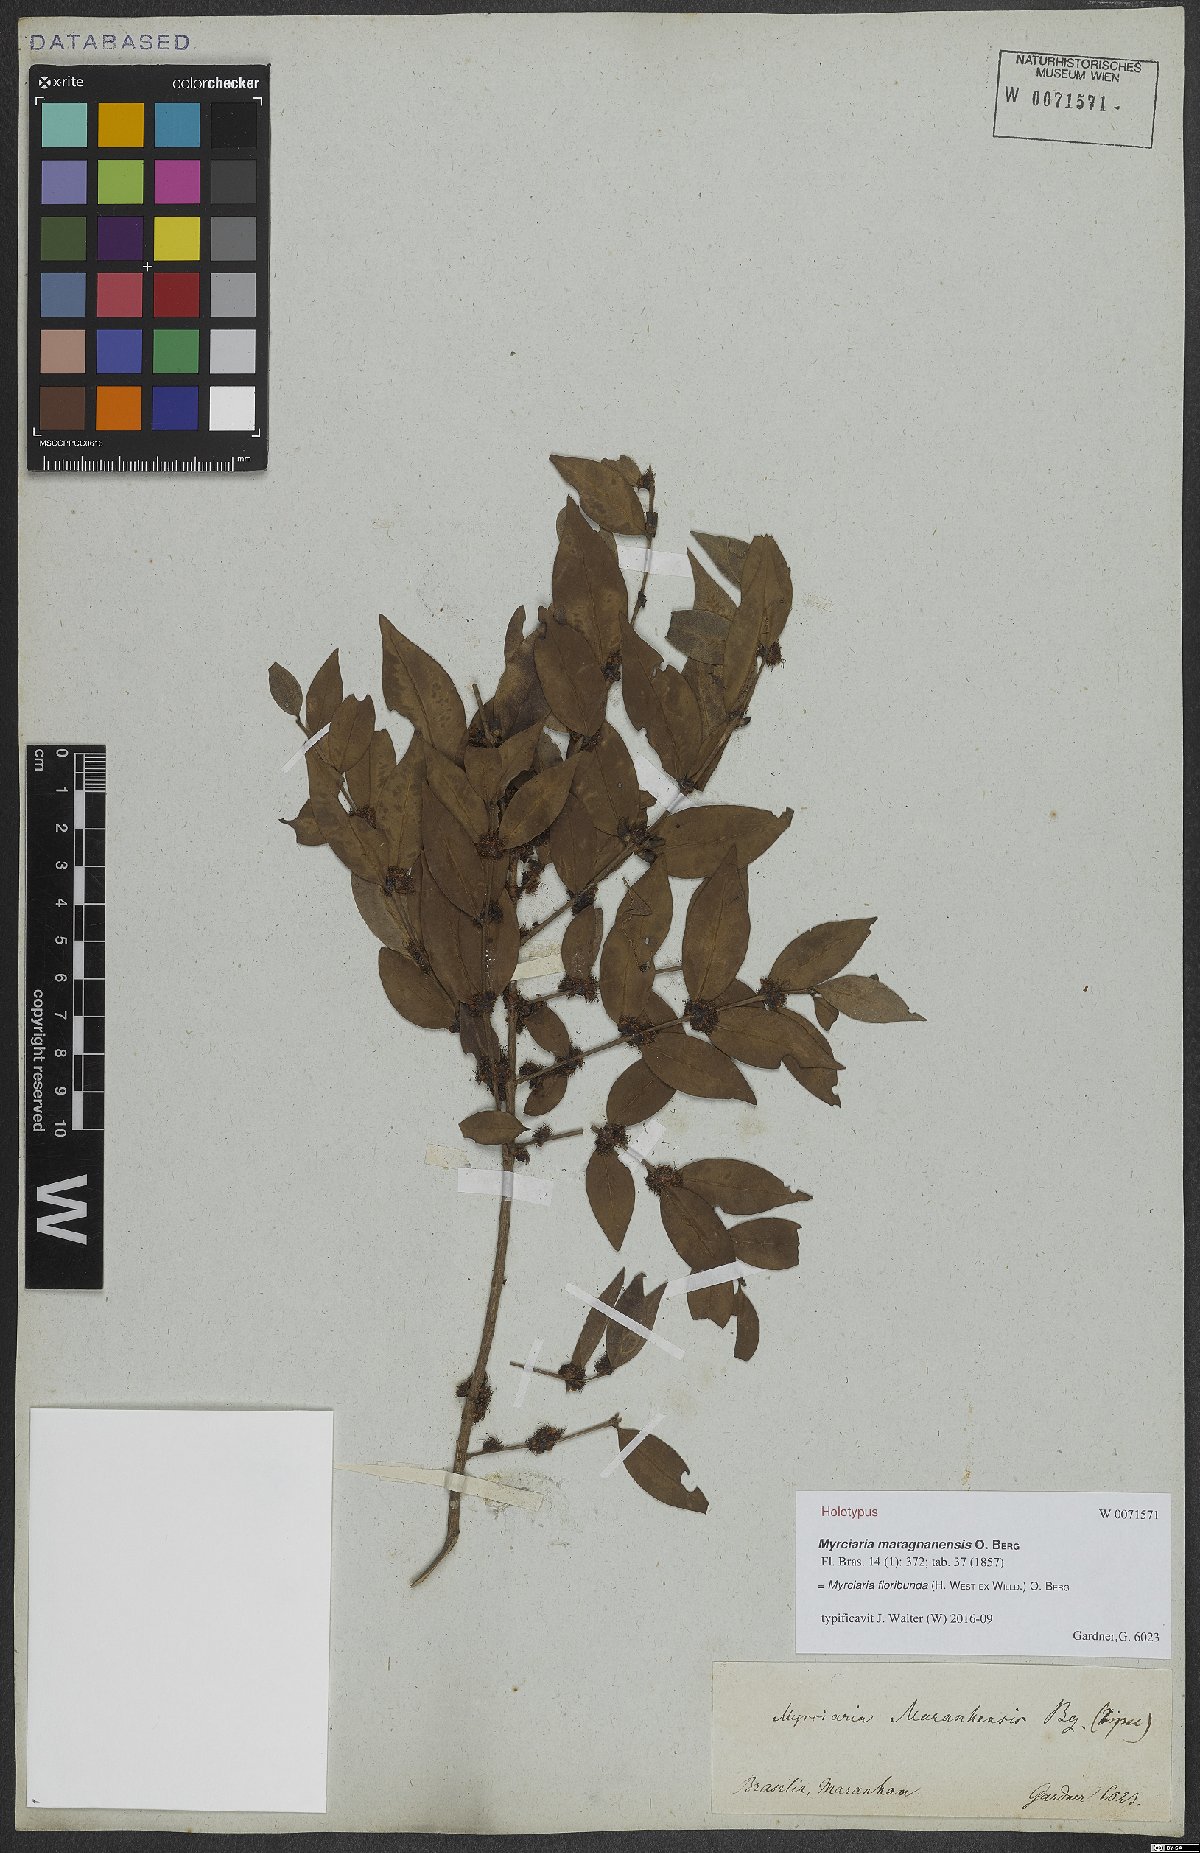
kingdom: Plantae
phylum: Tracheophyta
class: Magnoliopsida
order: Myrtales
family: Myrtaceae
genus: Myrciaria
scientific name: Myrciaria floribunda
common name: Guavaberry
